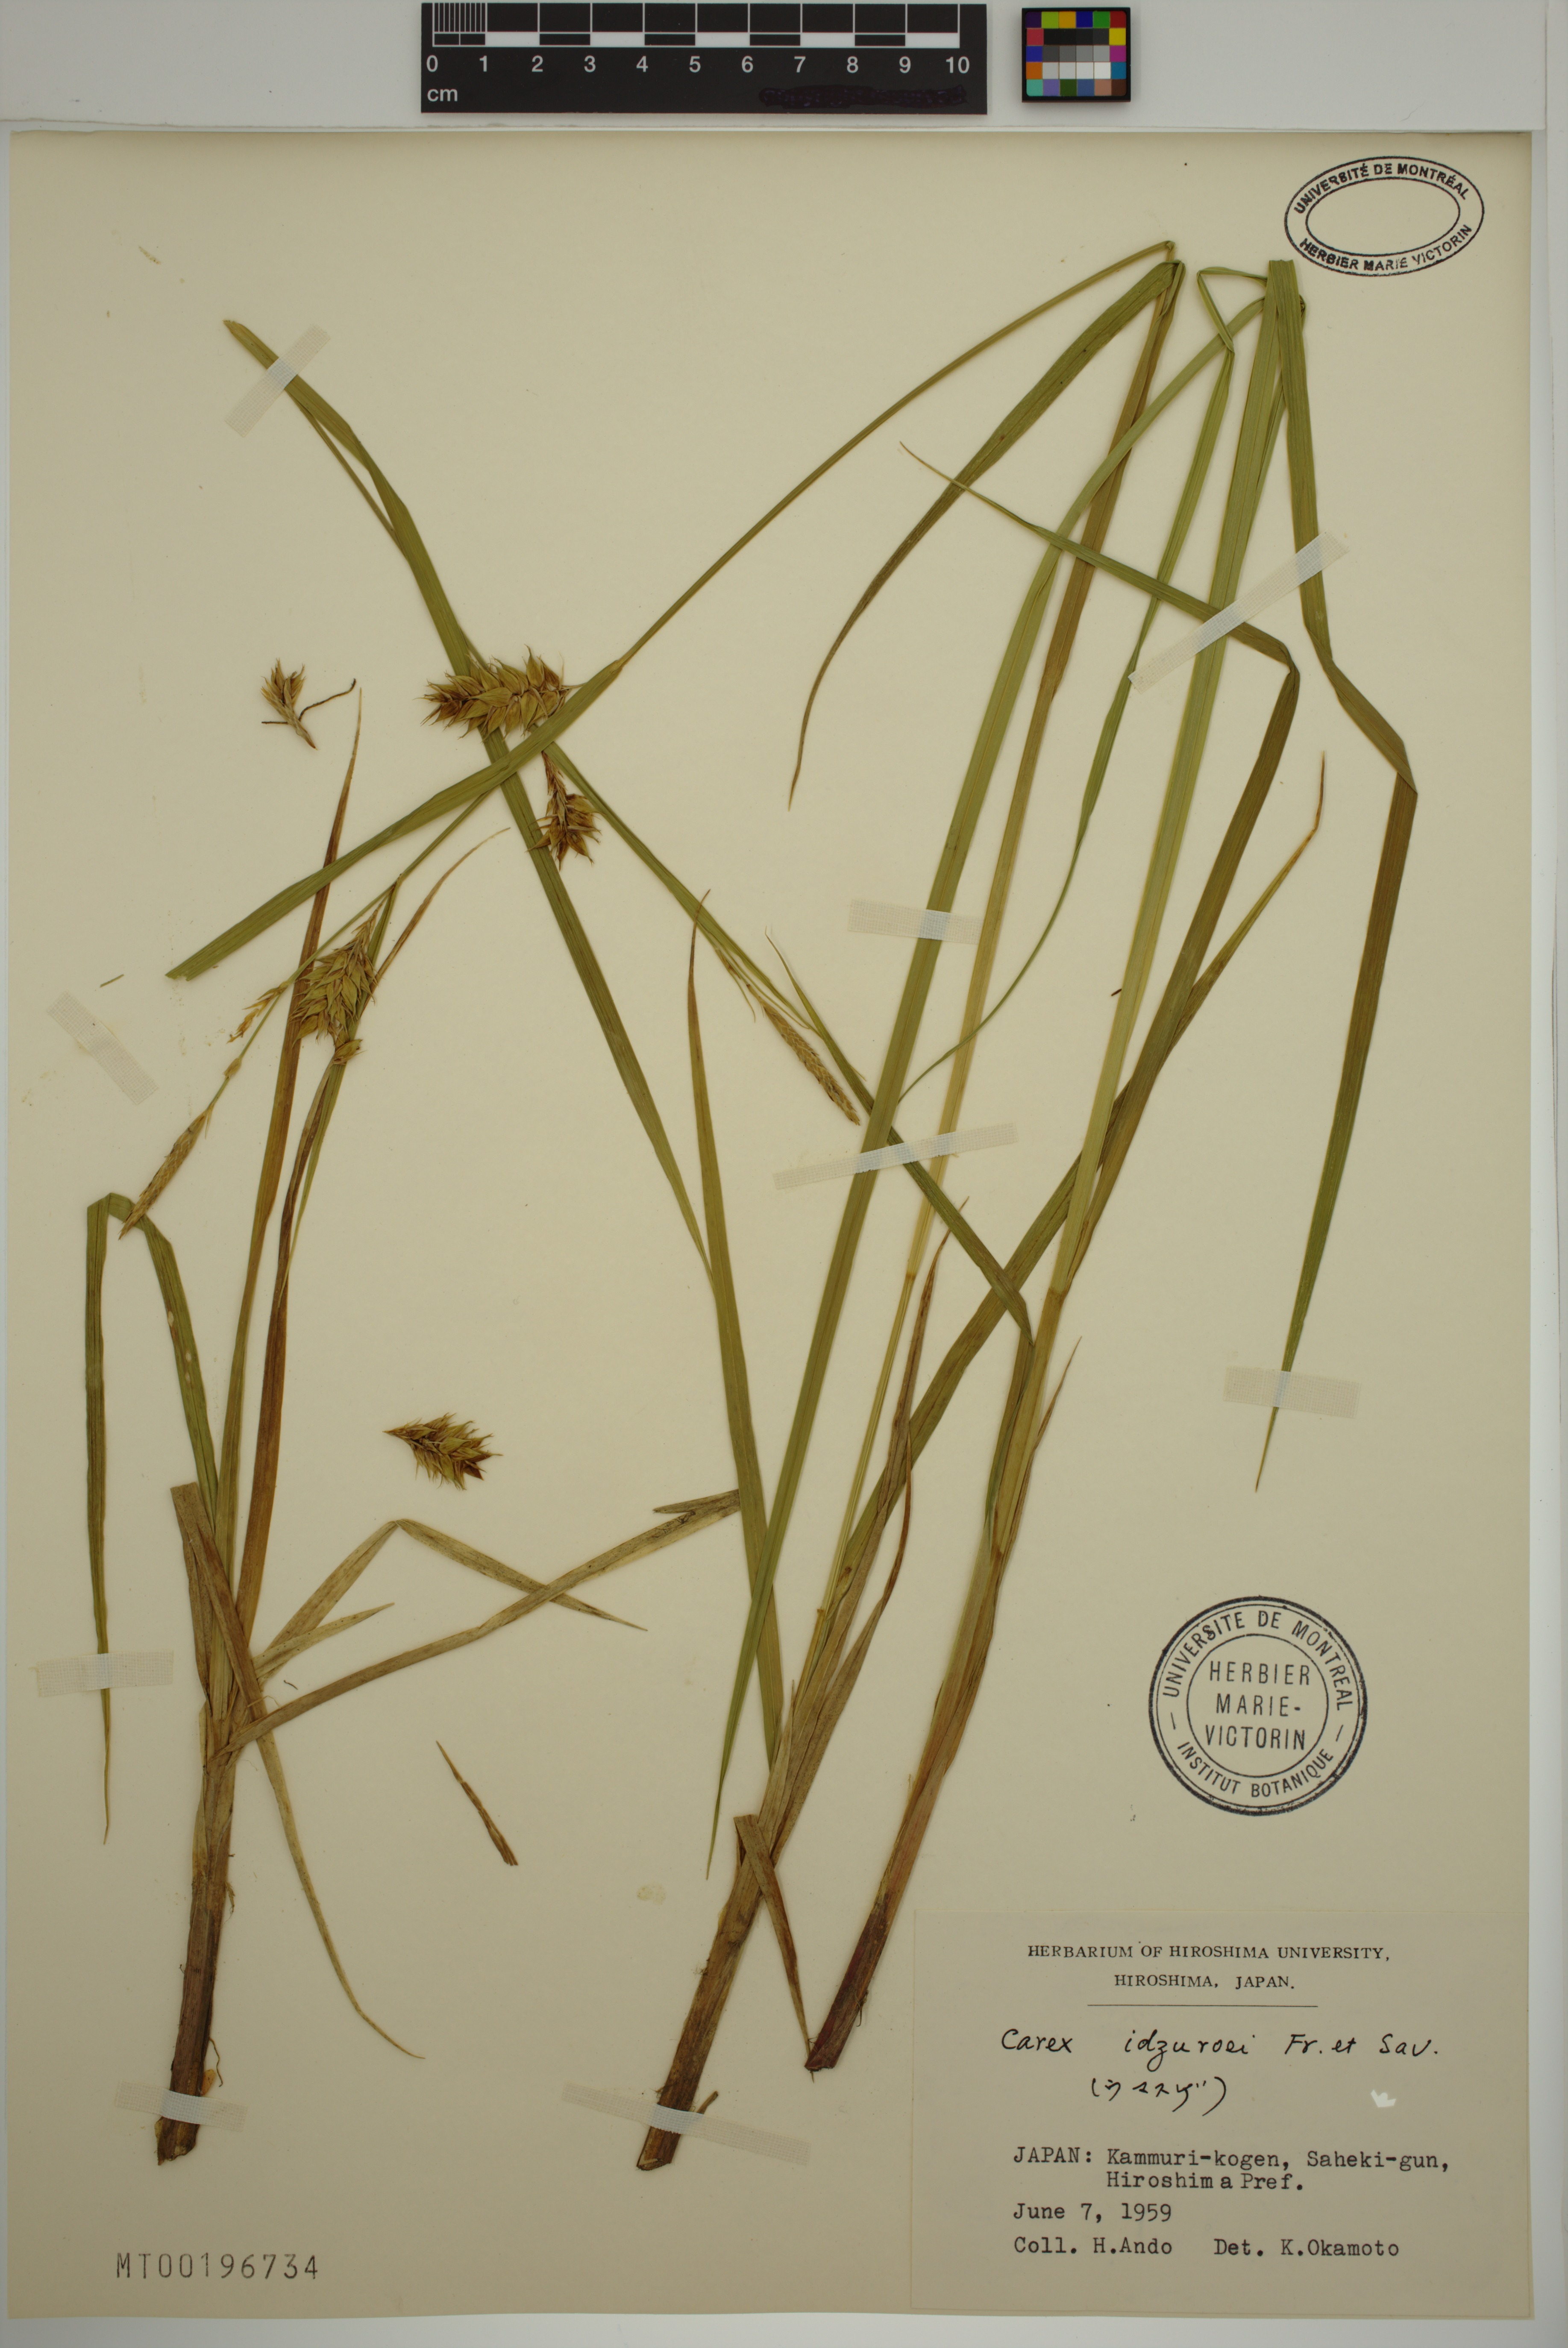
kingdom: Plantae
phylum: Tracheophyta
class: Liliopsida
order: Poales
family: Cyperaceae
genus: Carex
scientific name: Carex idzuroei
